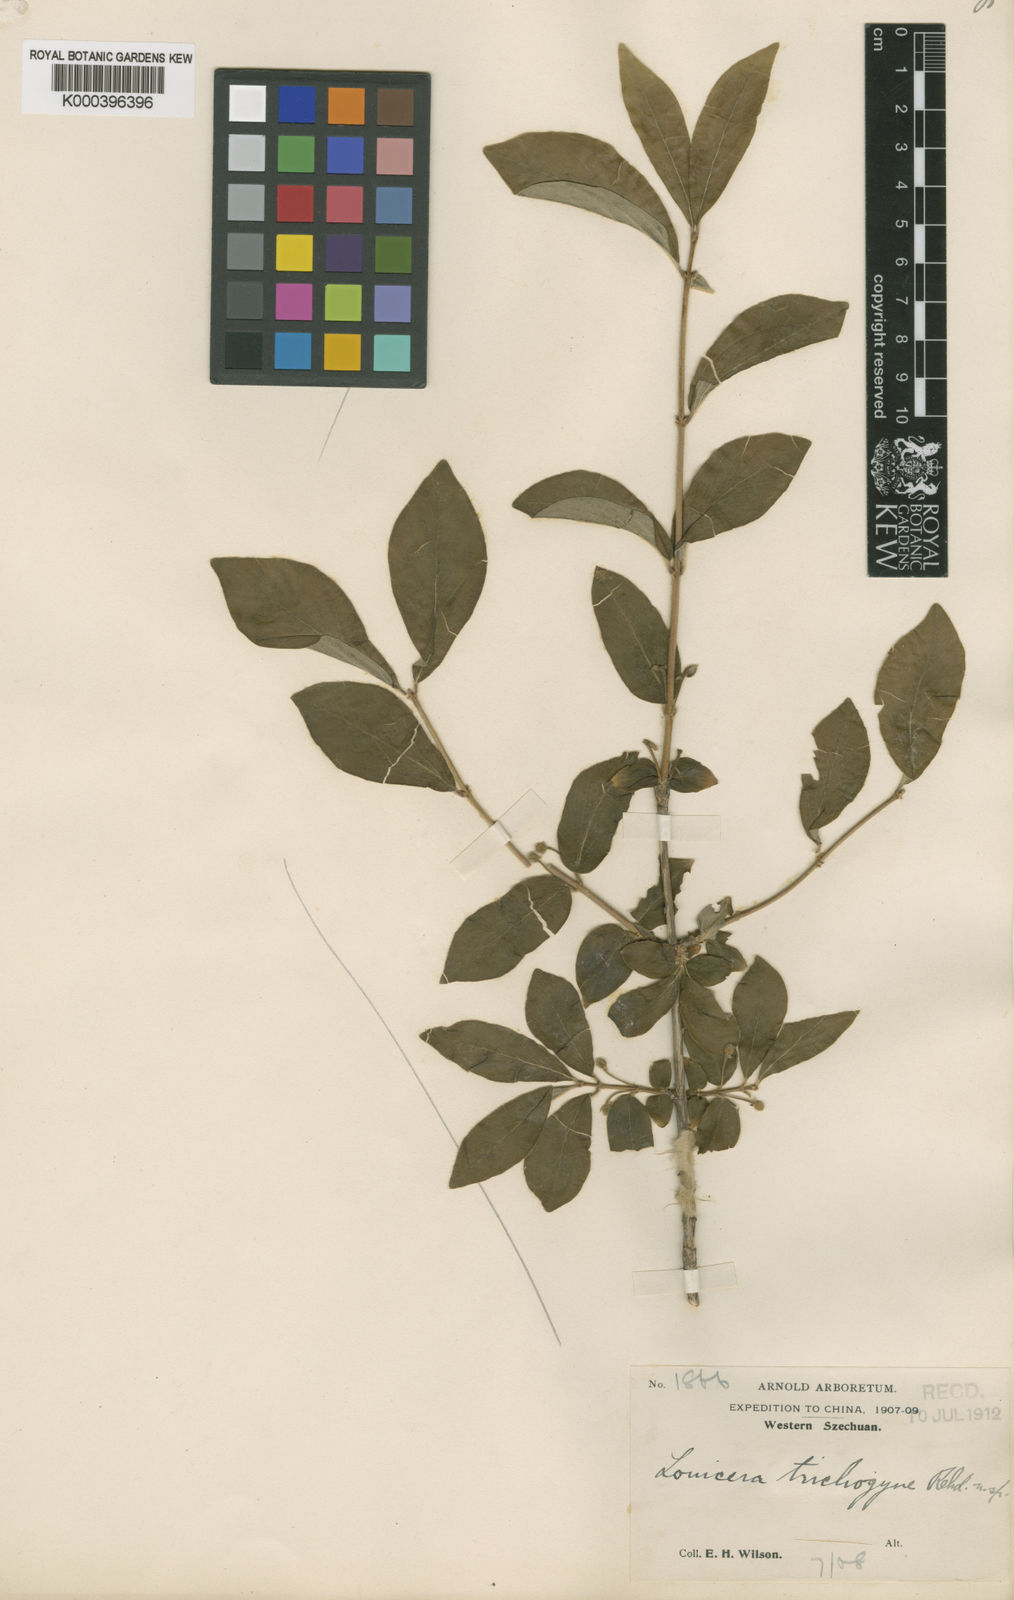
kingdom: Plantae
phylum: Tracheophyta
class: Magnoliopsida
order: Dipsacales
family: Caprifoliaceae
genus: Lonicera
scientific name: Lonicera tangutica
